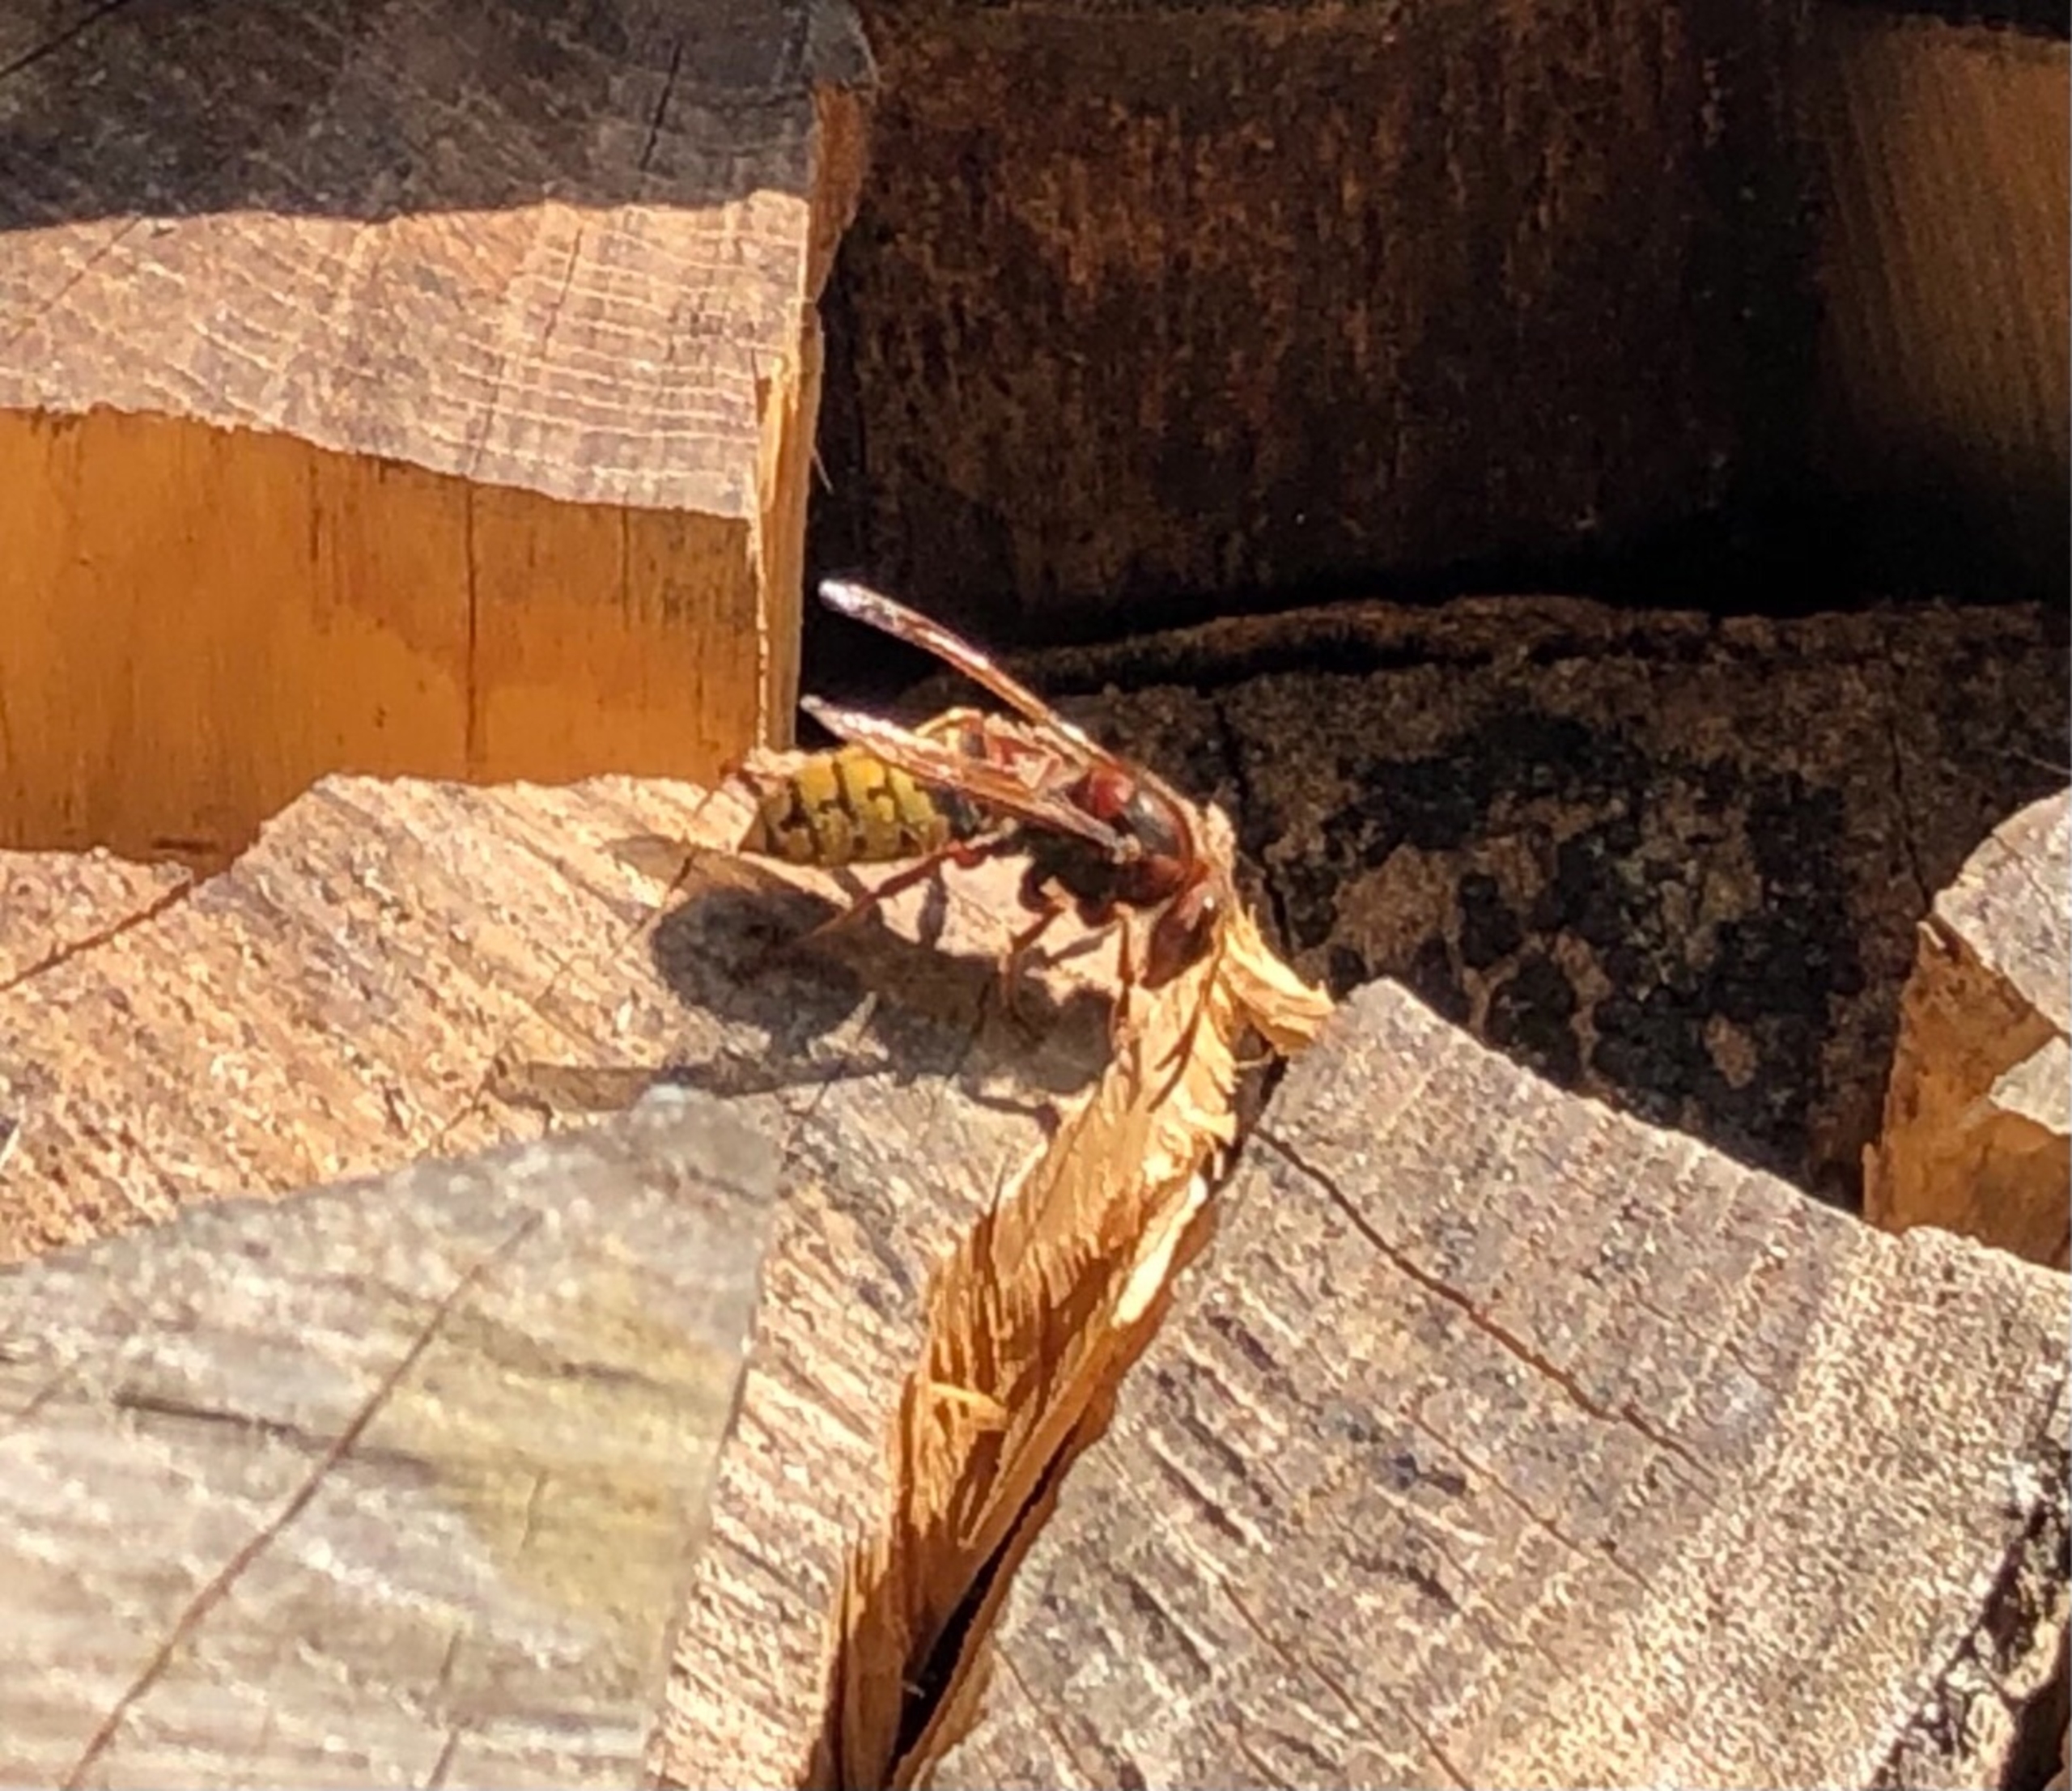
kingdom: Animalia
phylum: Arthropoda
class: Insecta
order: Hymenoptera
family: Vespidae
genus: Vespa
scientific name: Vespa crabro
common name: Stor gedehams
